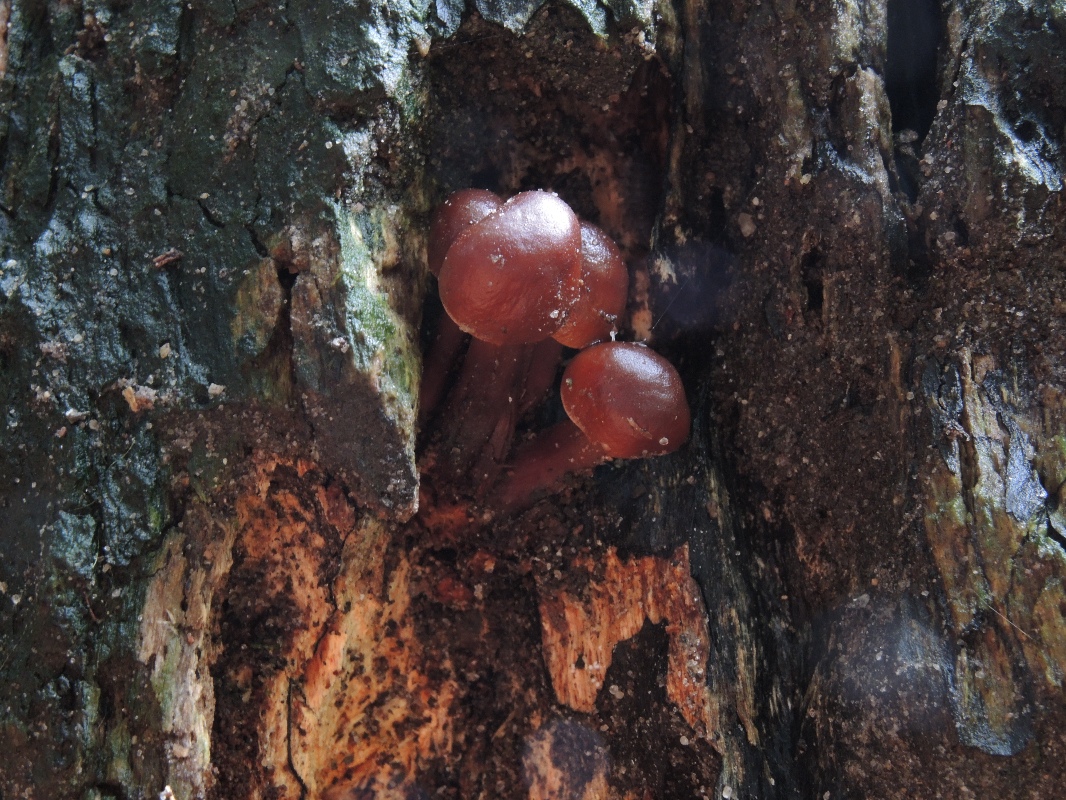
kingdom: Fungi
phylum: Basidiomycota
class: Agaricomycetes
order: Agaricales
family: Omphalotaceae
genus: Gymnopus
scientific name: Gymnopus erythropus
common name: rødstokket fladhat
